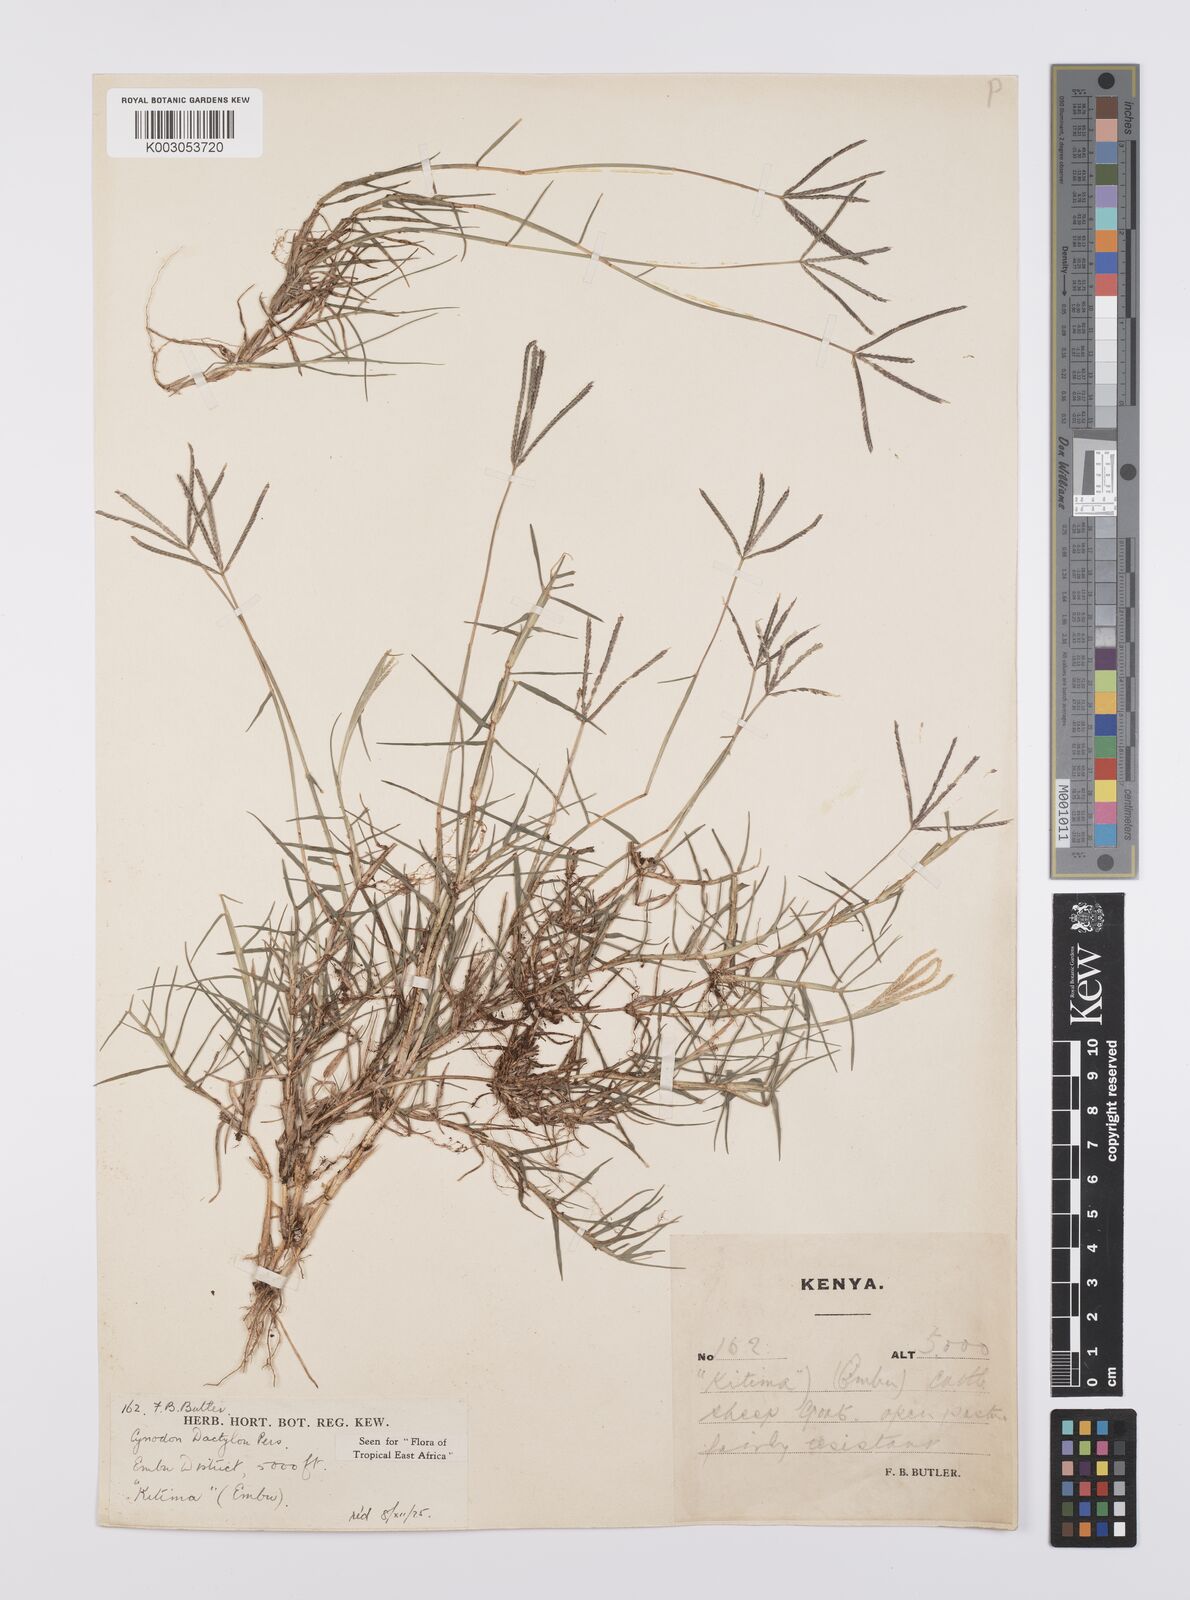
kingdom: Plantae
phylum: Tracheophyta
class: Liliopsida
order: Poales
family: Poaceae
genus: Cynodon
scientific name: Cynodon dactylon
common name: Bermuda grass
